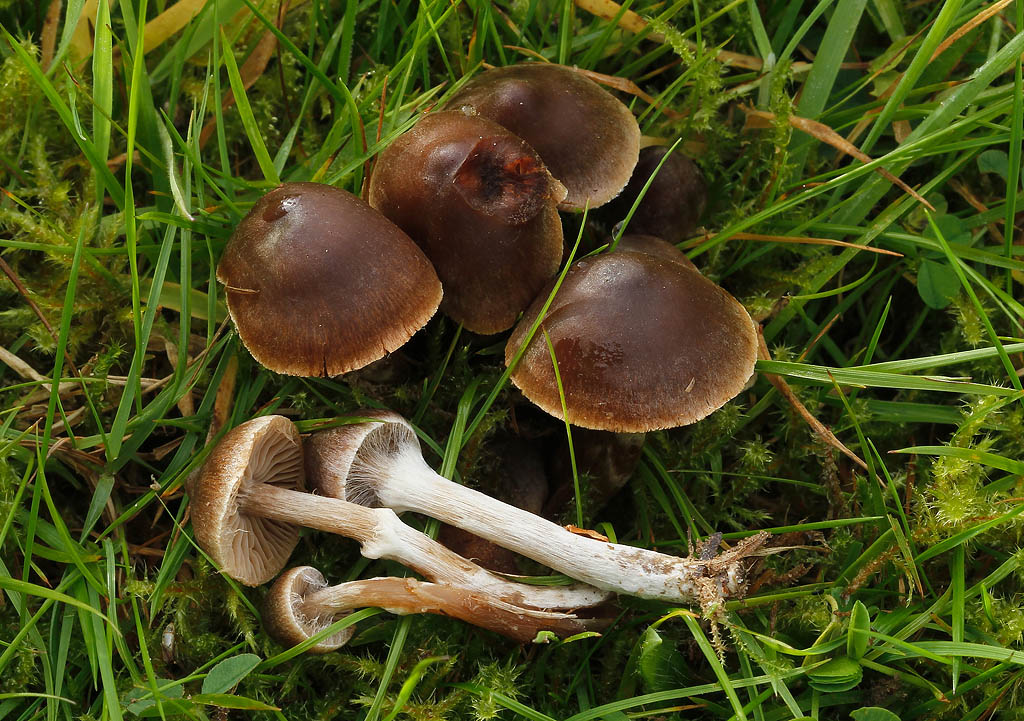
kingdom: Fungi
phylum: Basidiomycota
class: Agaricomycetes
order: Agaricales
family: Cortinariaceae
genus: Cortinarius
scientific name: Cortinarius flexibilifolius
